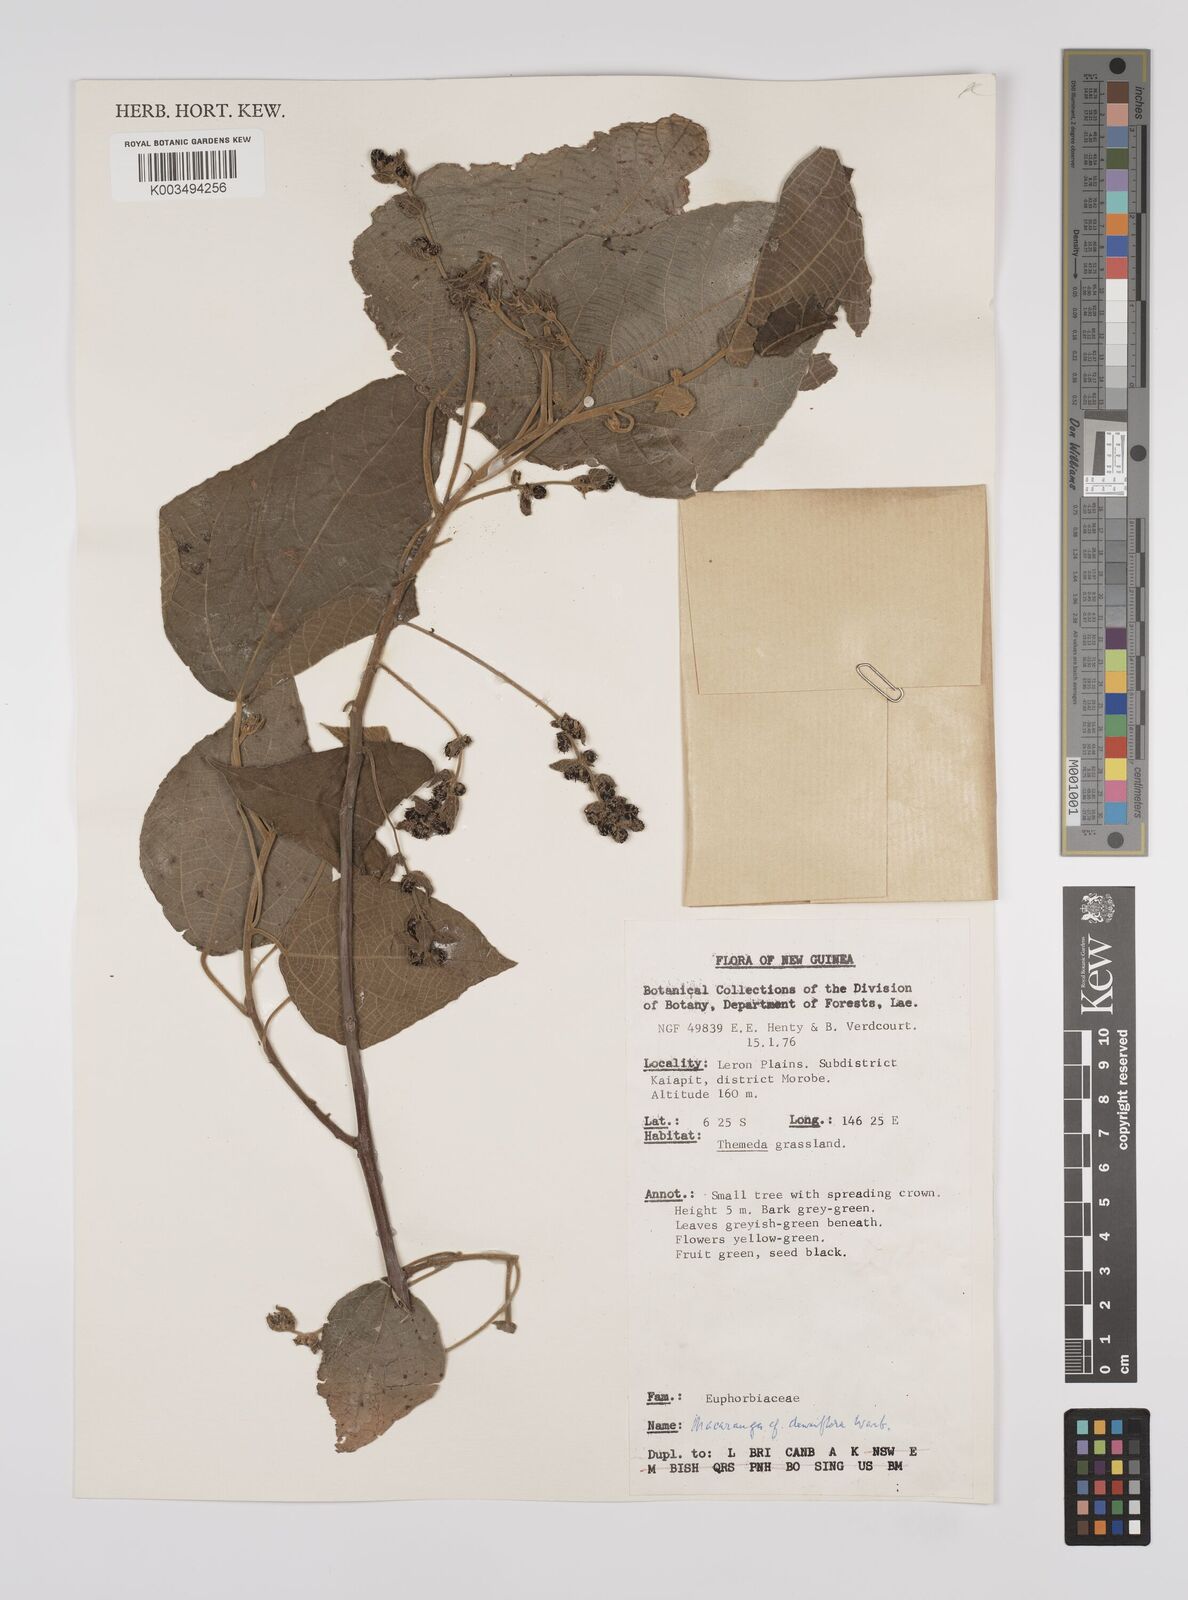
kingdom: Plantae
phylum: Tracheophyta
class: Magnoliopsida
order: Malpighiales
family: Euphorbiaceae
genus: Macaranga
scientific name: Macaranga densiflora
